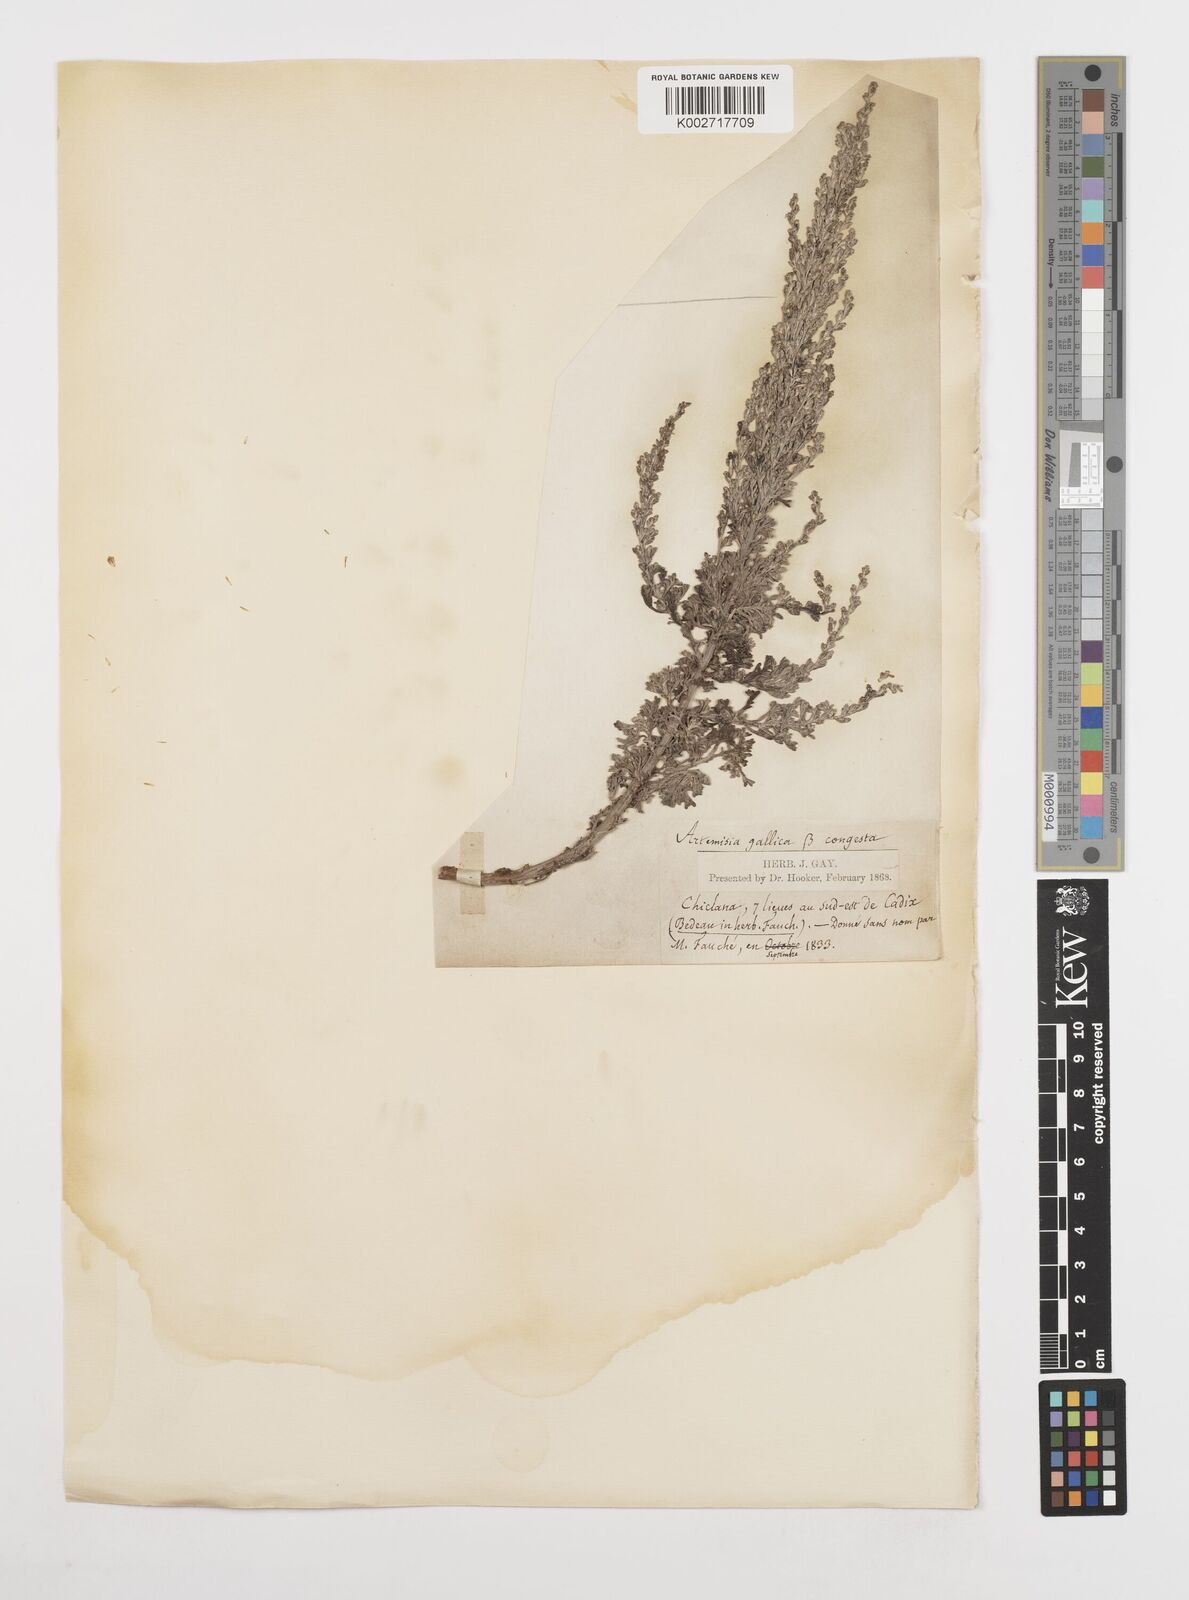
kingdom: Plantae
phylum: Tracheophyta
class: Magnoliopsida
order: Asterales
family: Asteraceae
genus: Artemisia
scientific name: Artemisia campestris
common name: Field wormwood
